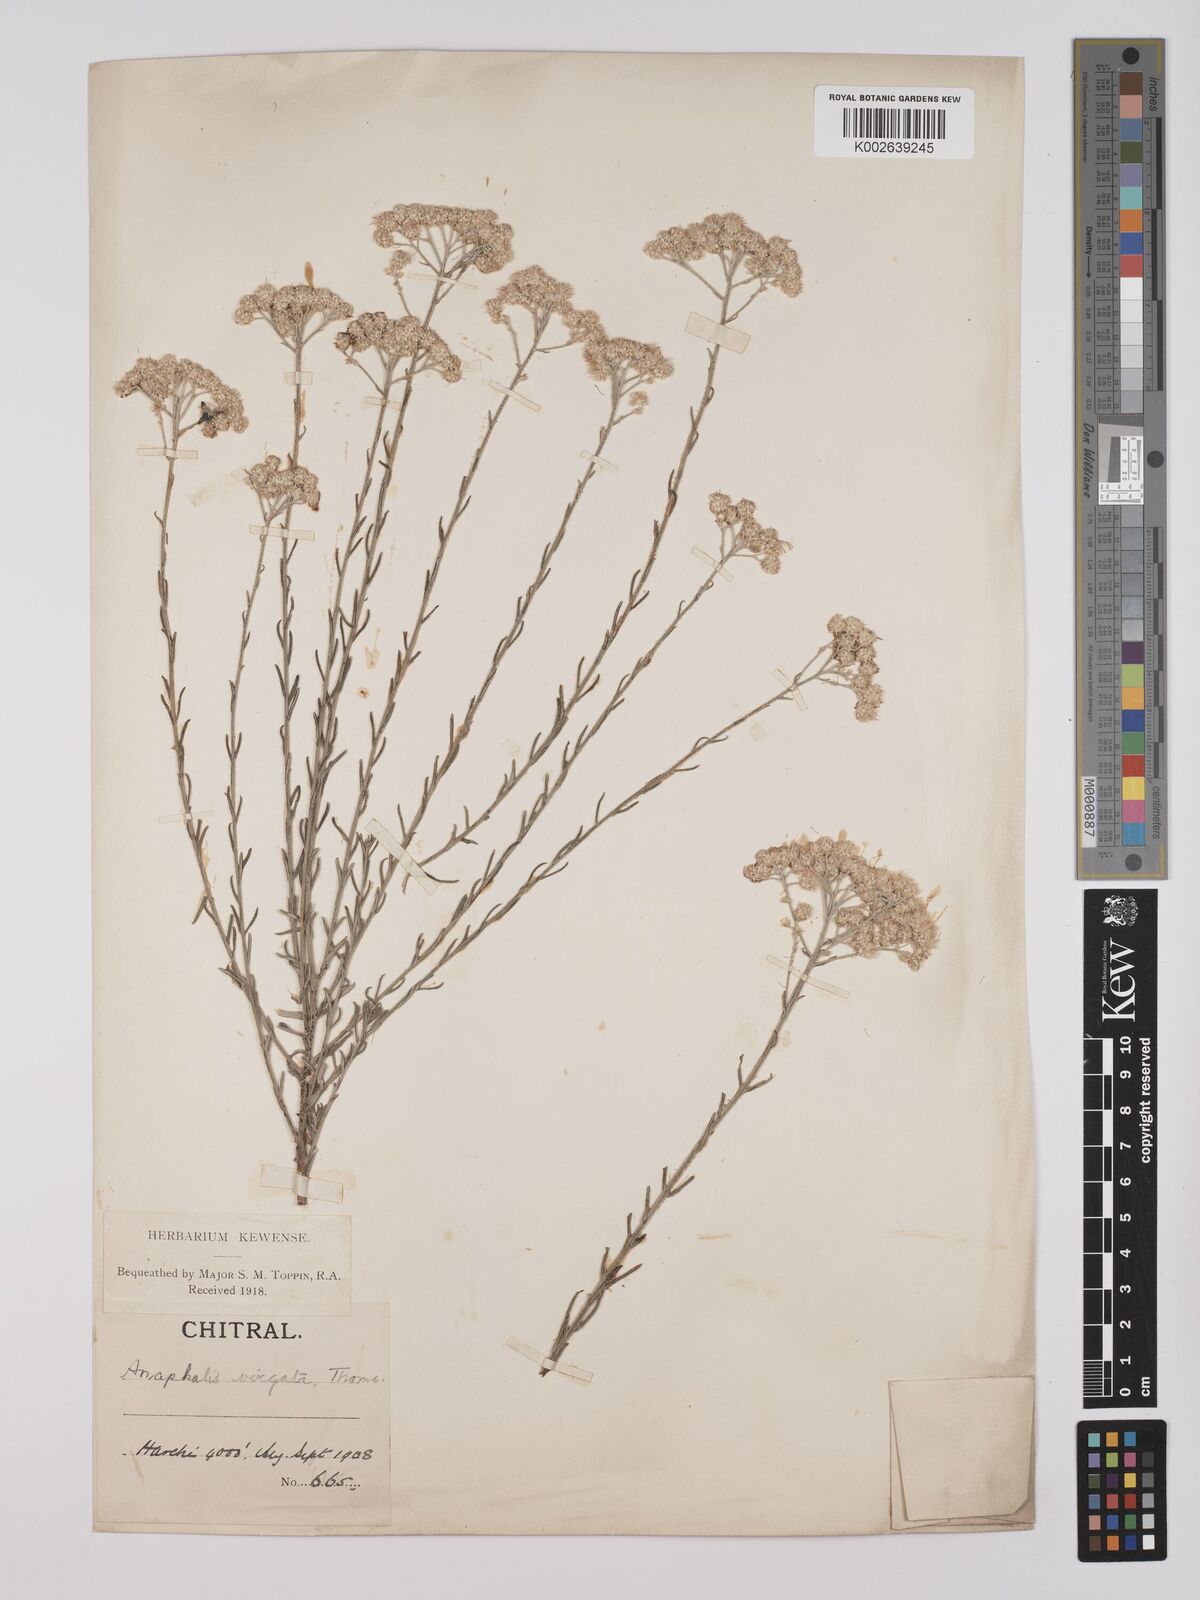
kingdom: Plantae
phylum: Tracheophyta
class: Magnoliopsida
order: Asterales
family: Asteraceae
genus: Anaphalis
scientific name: Anaphalis virgata
